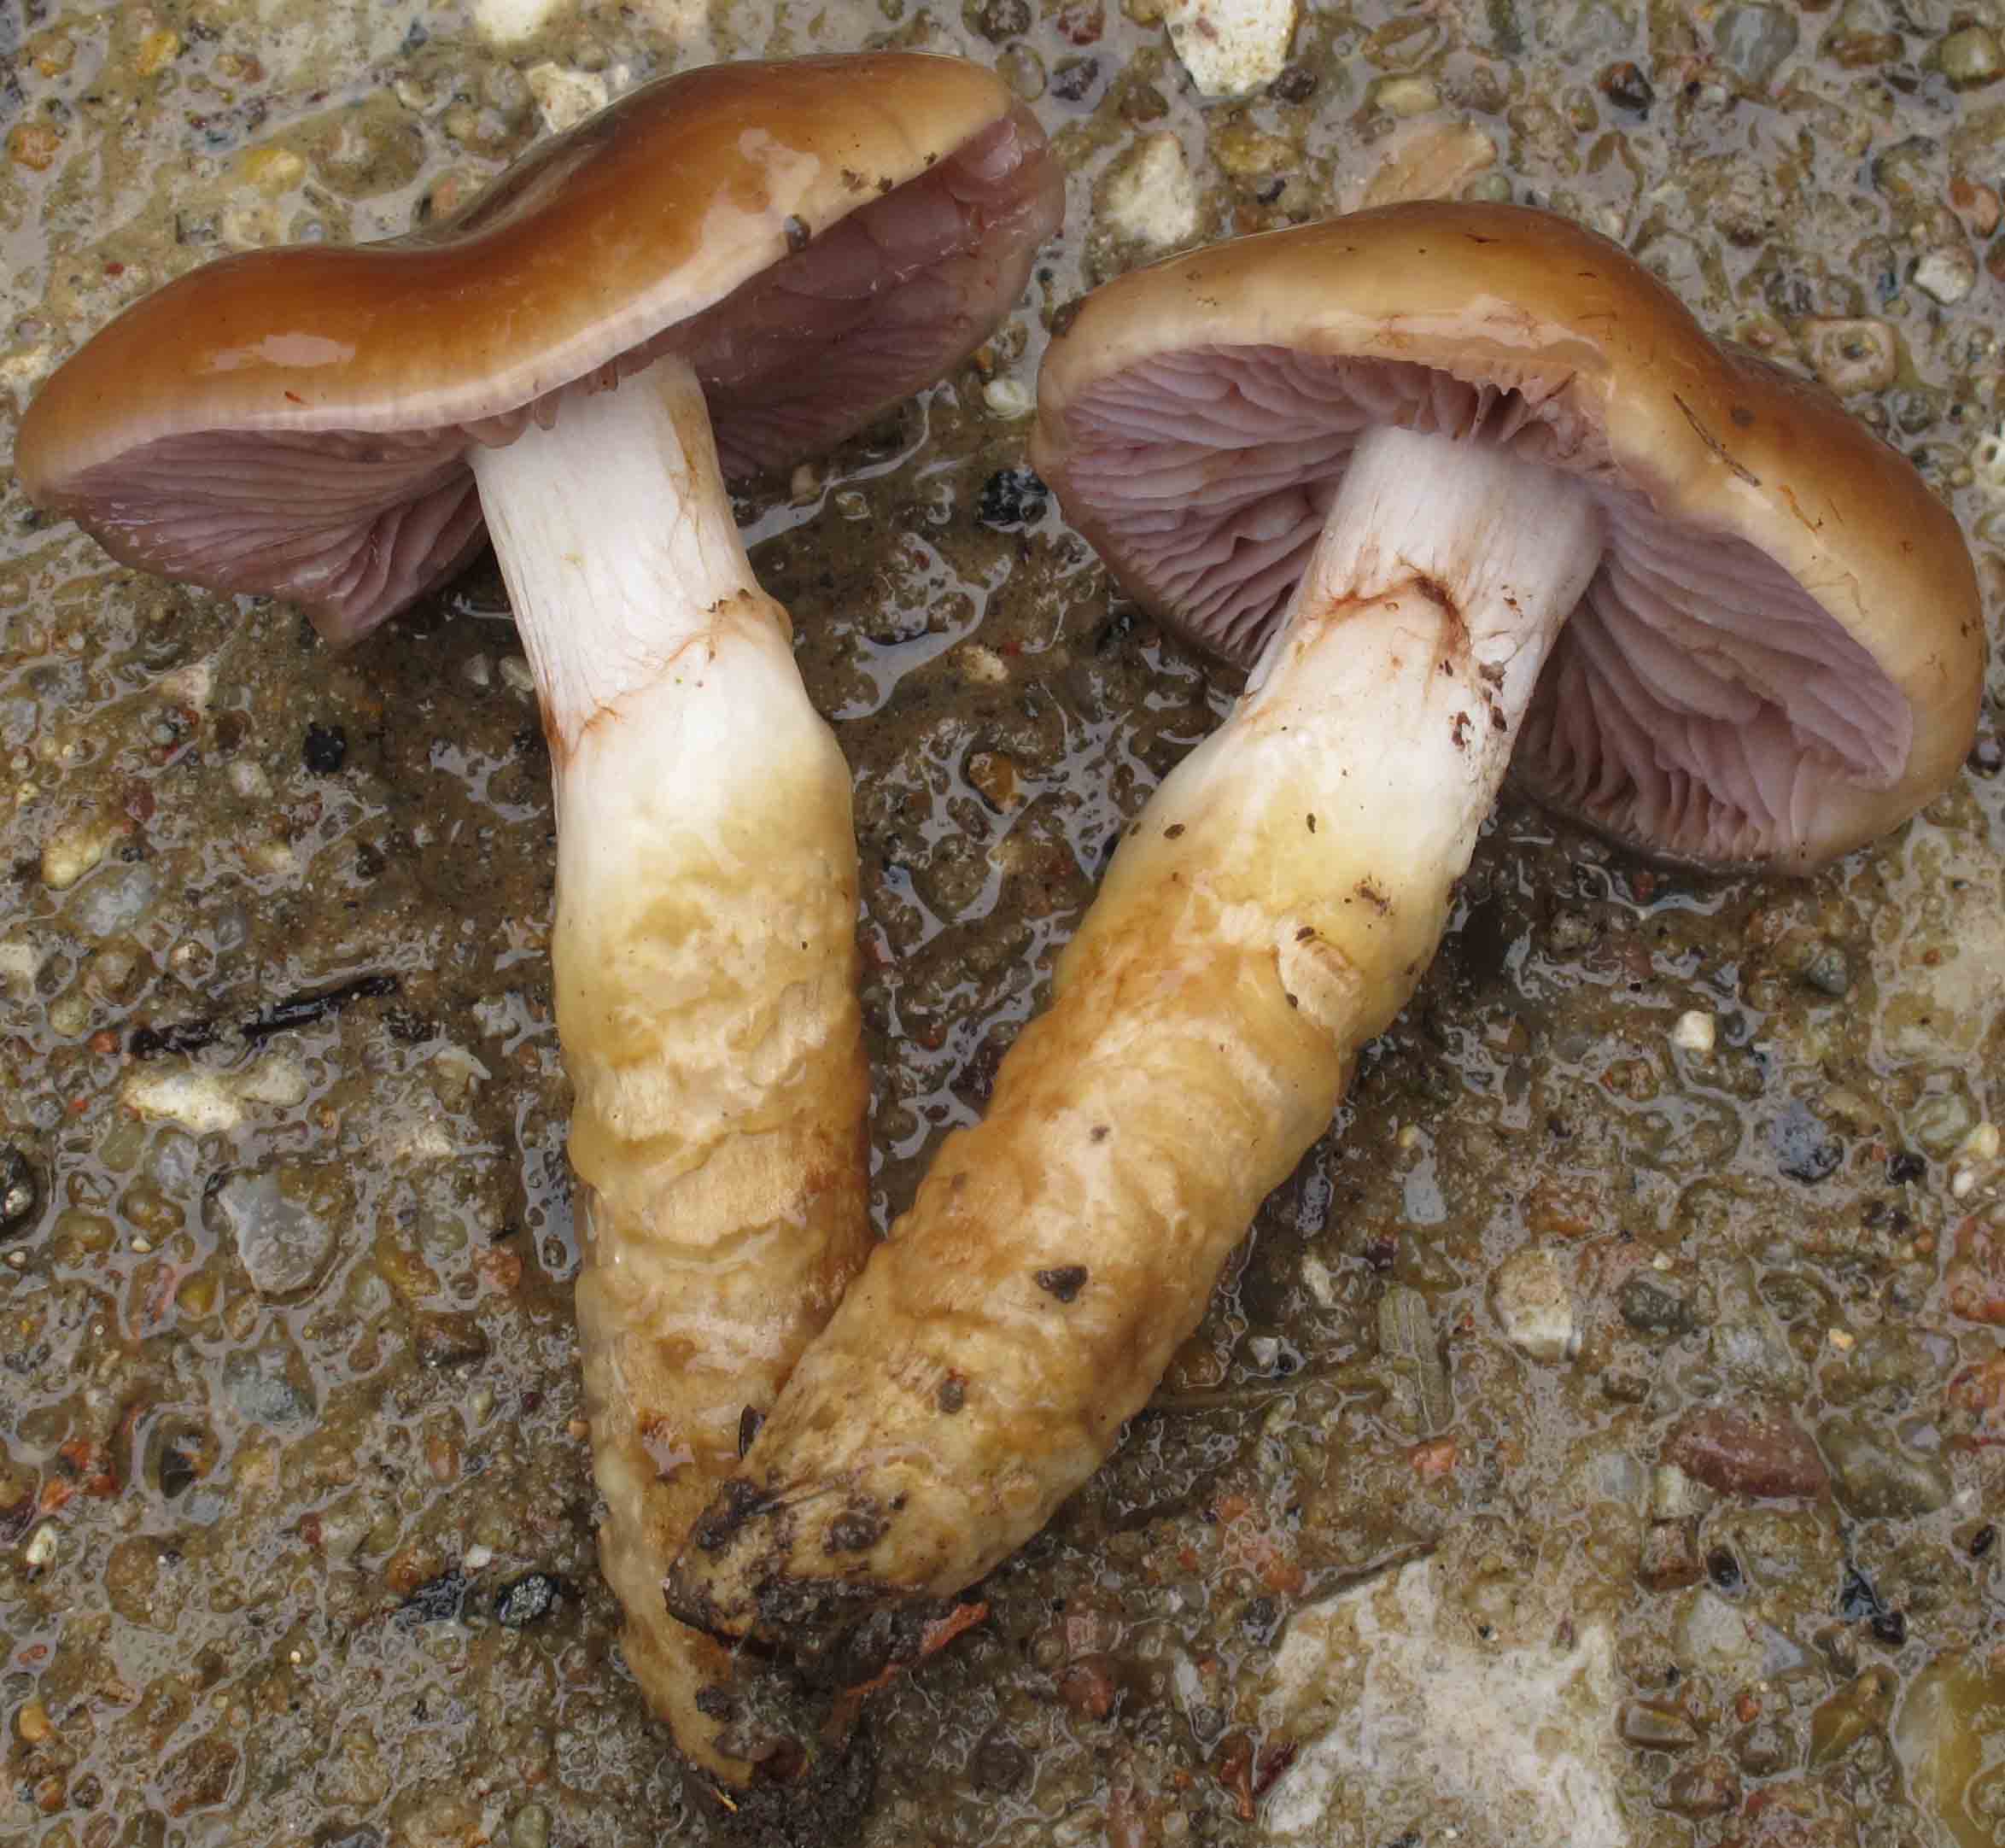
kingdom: Fungi
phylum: Basidiomycota
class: Agaricomycetes
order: Agaricales
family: Cortinariaceae
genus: Cortinarius
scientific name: Cortinarius trivialis
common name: brunslimet slørhat
